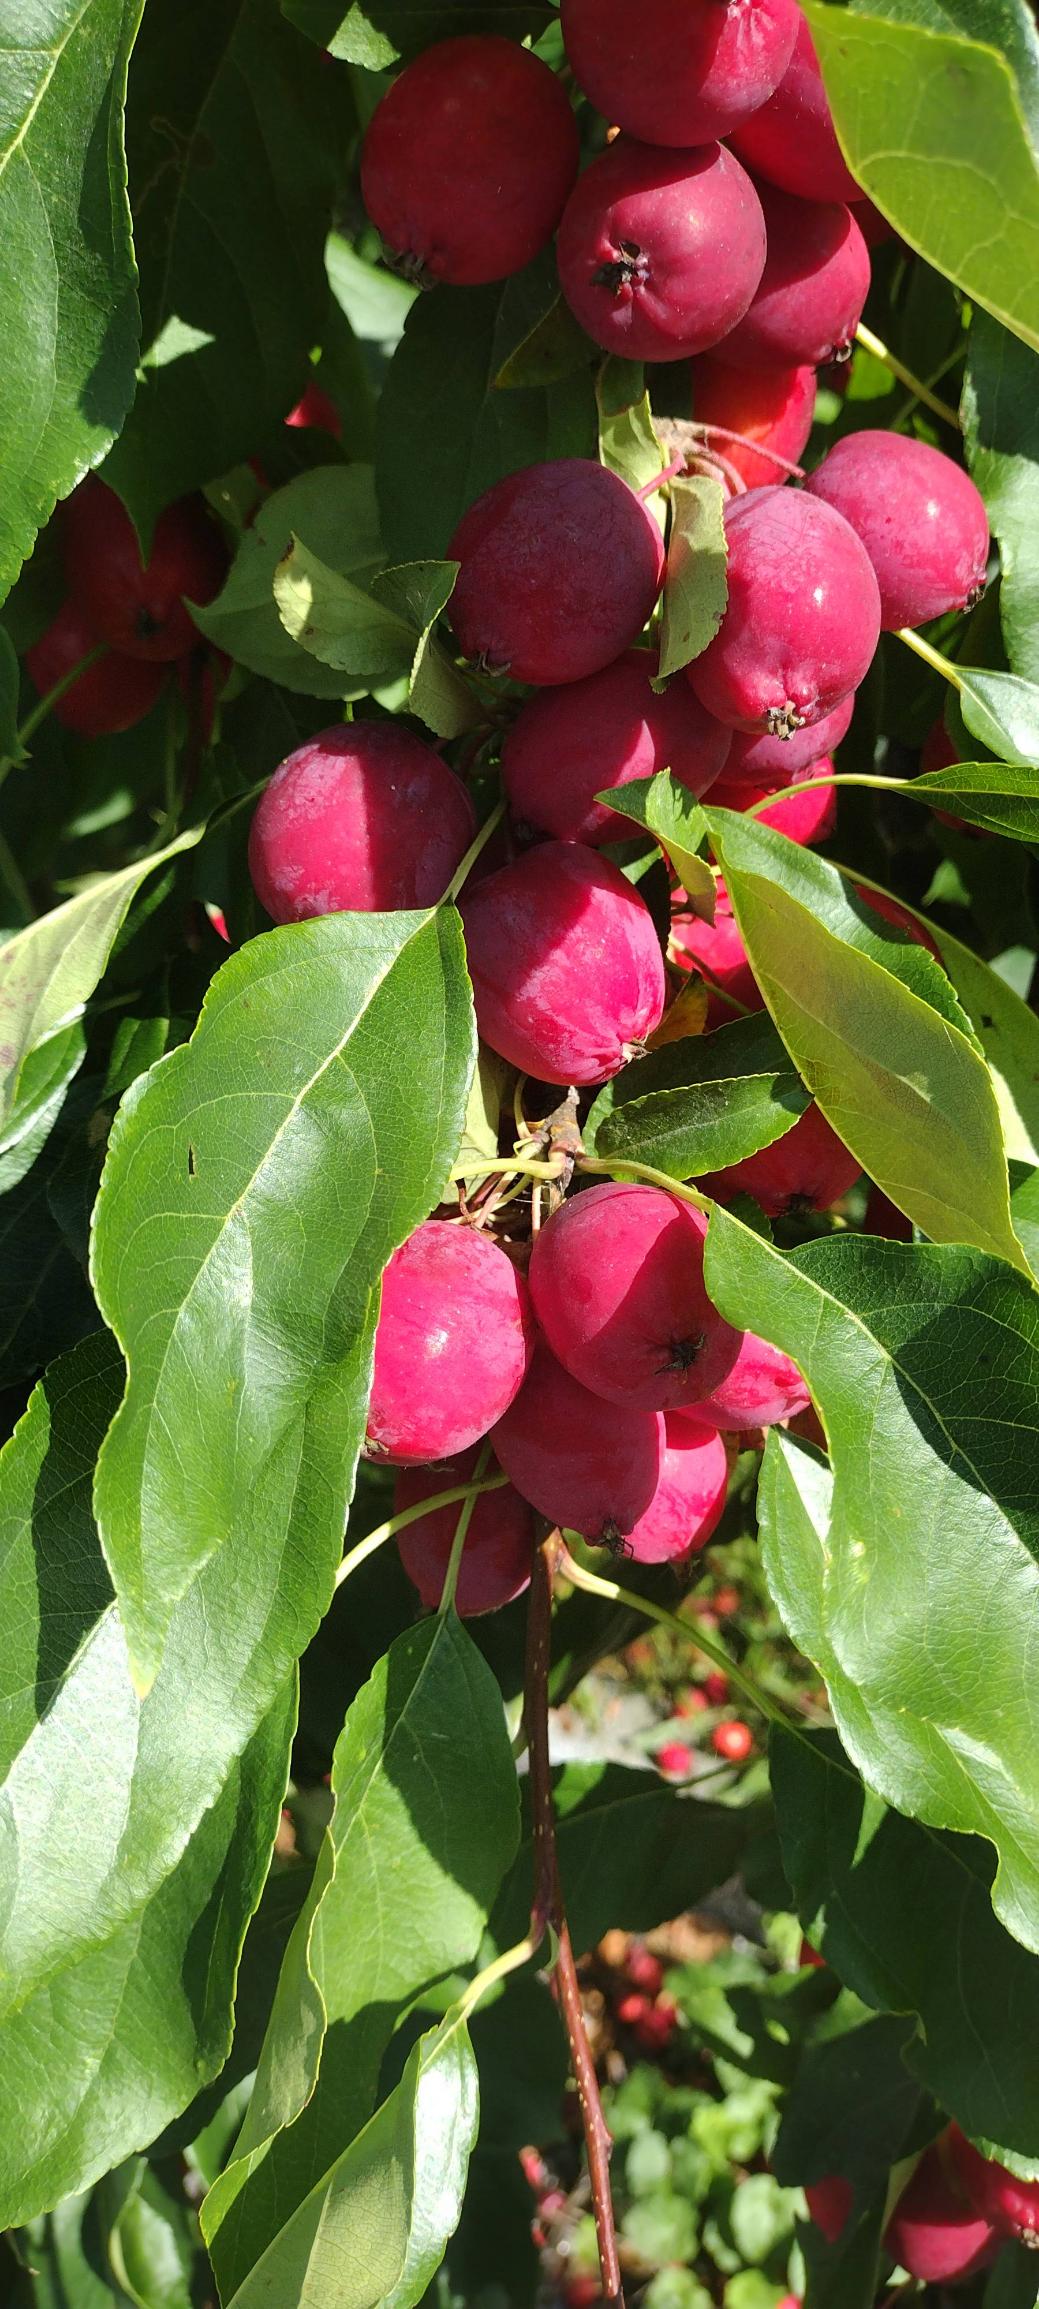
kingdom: Plantae
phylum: Tracheophyta
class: Magnoliopsida
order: Rosales
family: Rosaceae
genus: Malus
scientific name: Malus purpurea
